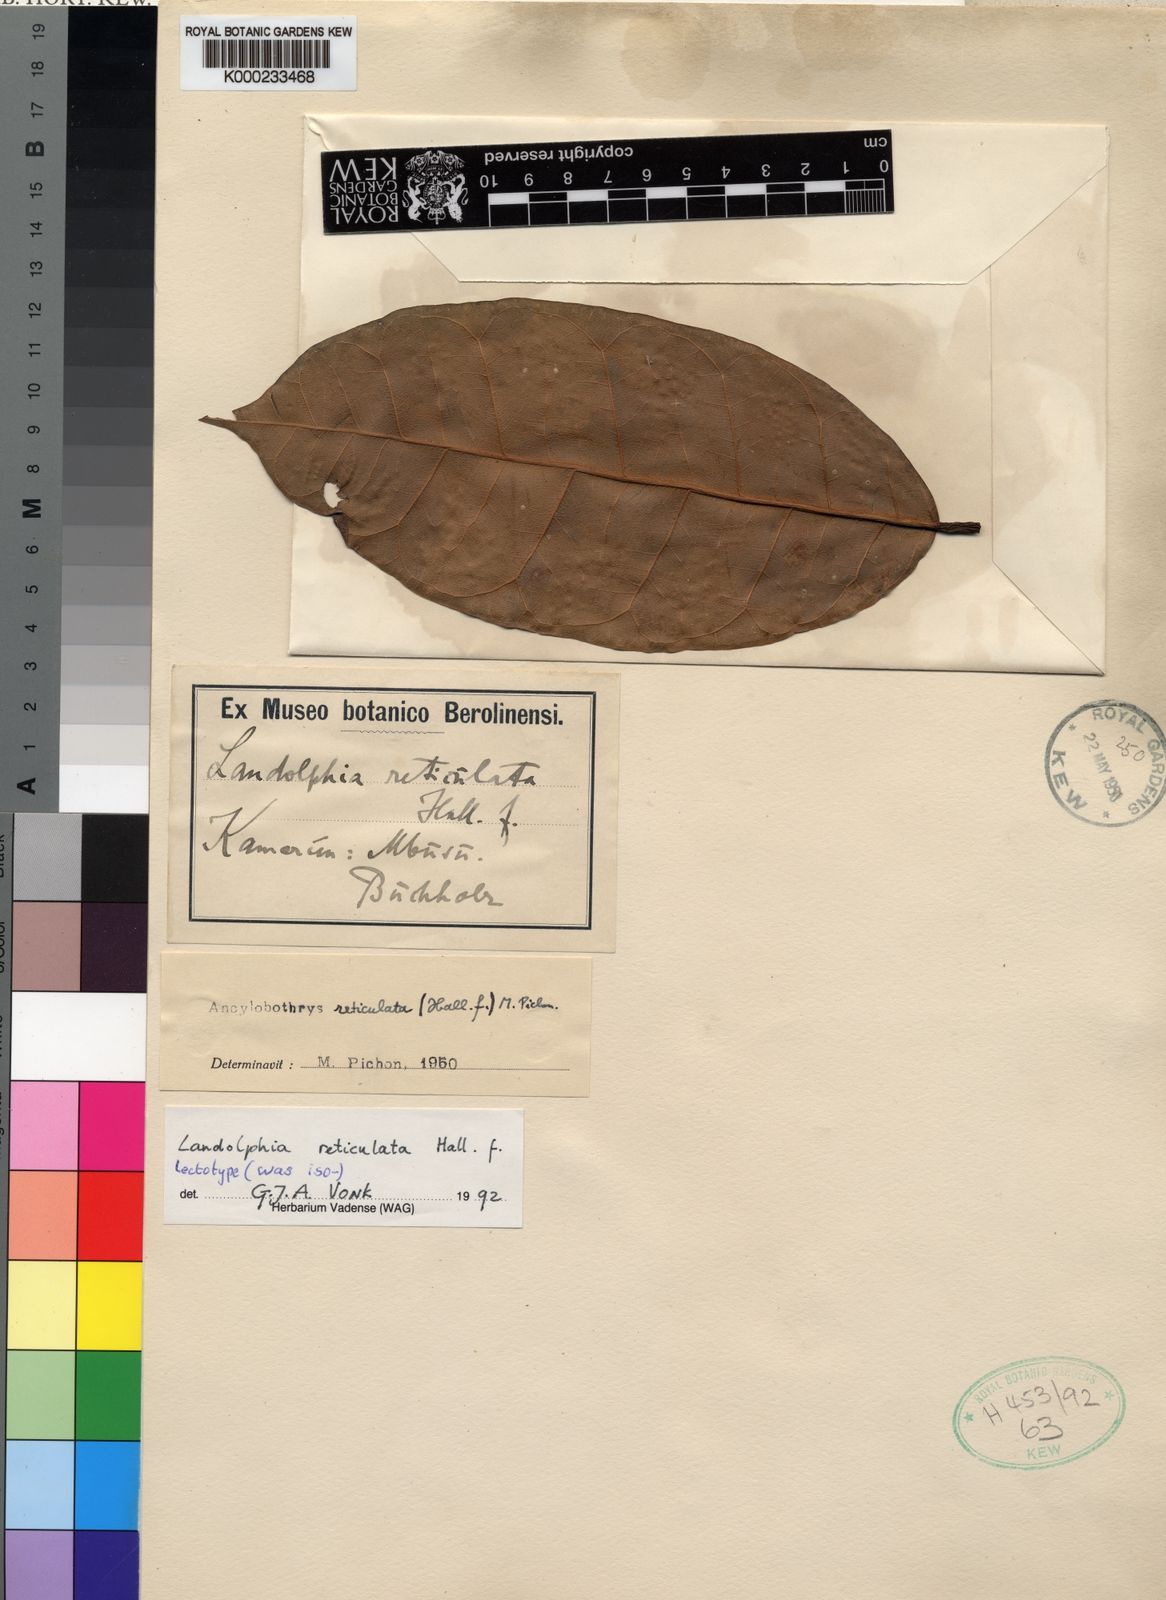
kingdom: Plantae
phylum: Tracheophyta
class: Magnoliopsida
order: Gentianales
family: Apocynaceae
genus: Landolphia
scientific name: Landolphia reticulata
